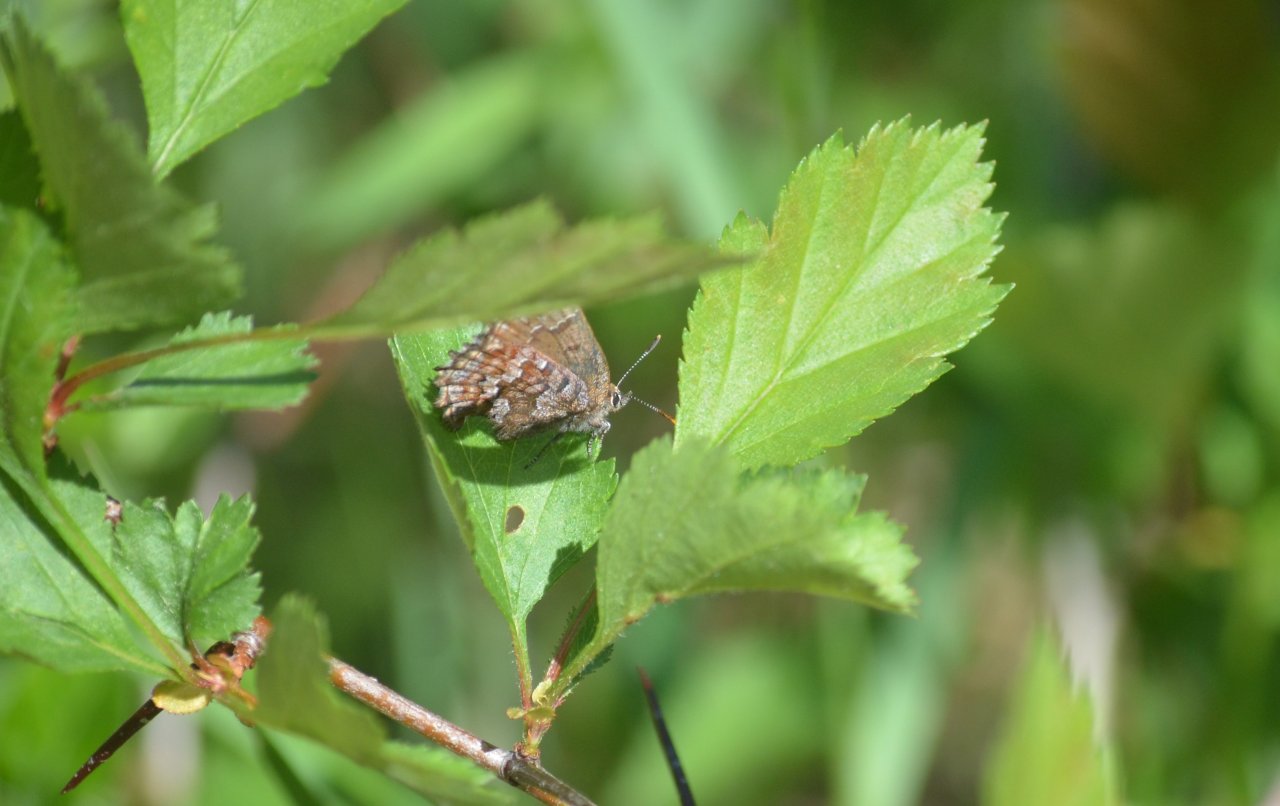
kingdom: Animalia
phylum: Arthropoda
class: Insecta
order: Lepidoptera
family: Lycaenidae
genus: Incisalia
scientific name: Incisalia niphon
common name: Eastern Pine Elfin
